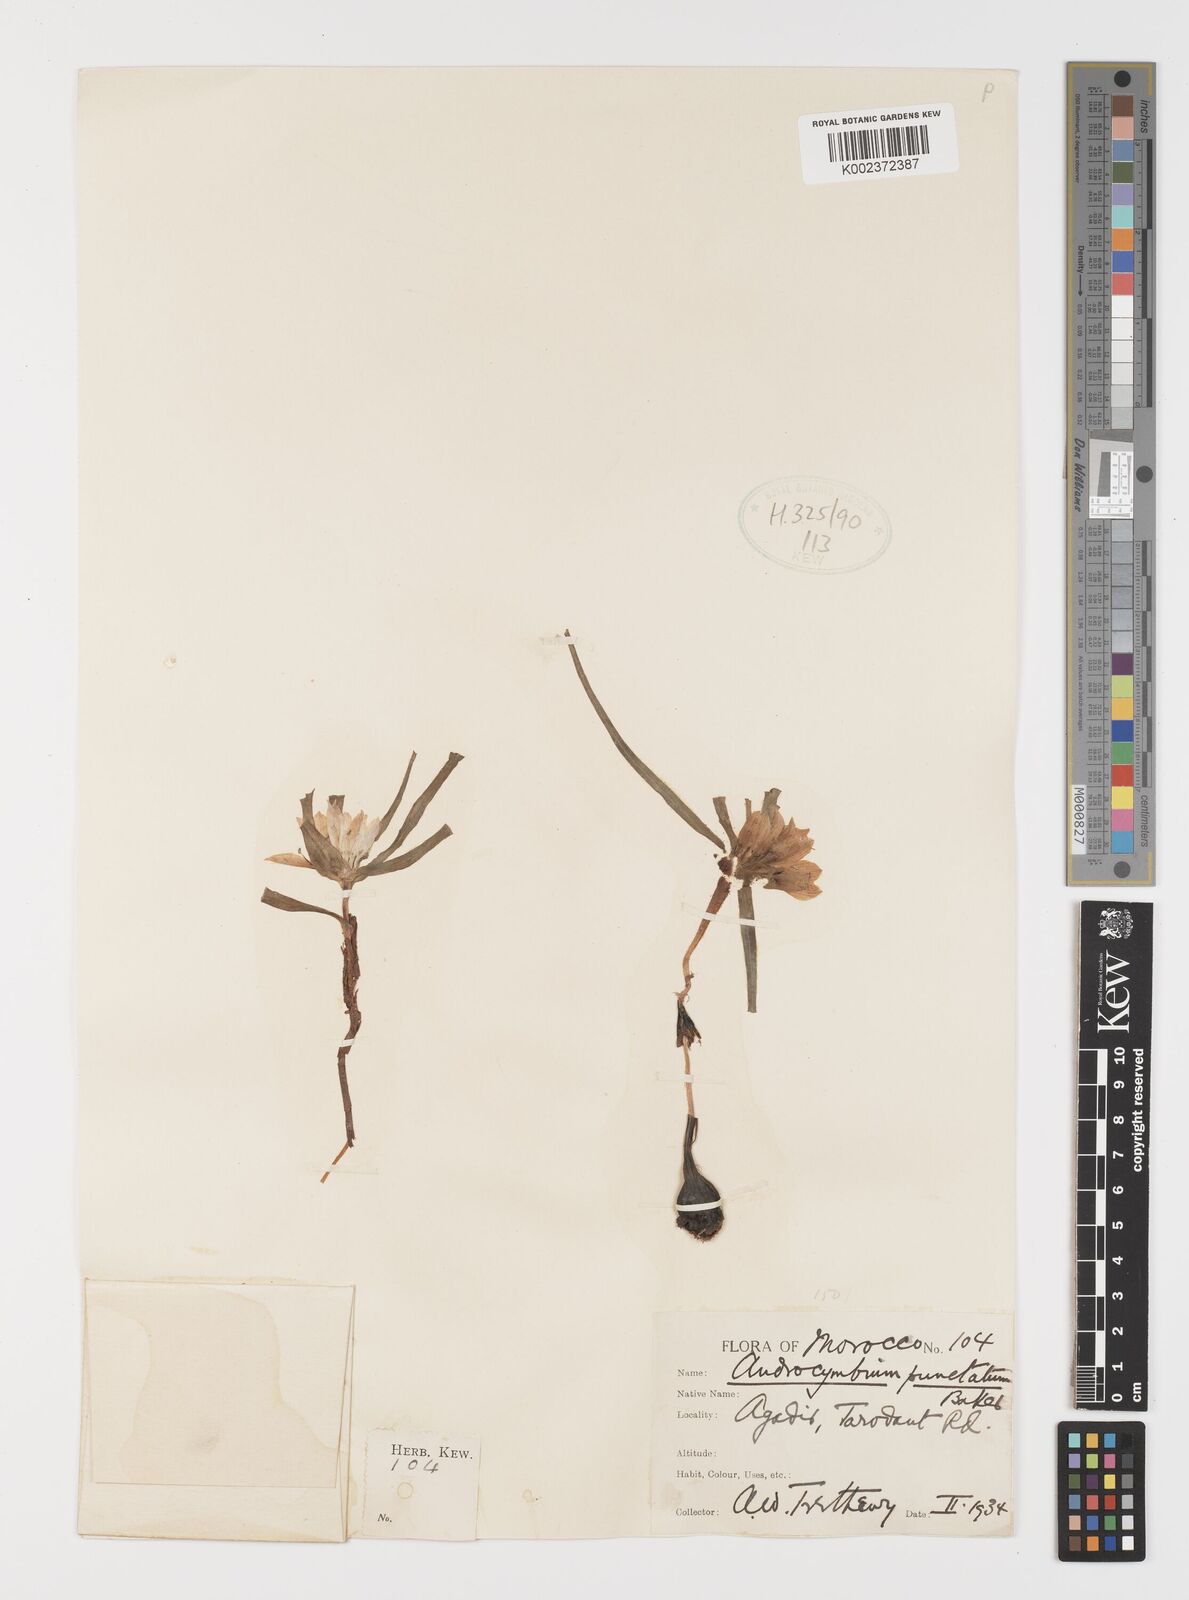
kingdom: Plantae
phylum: Tracheophyta
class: Liliopsida
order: Liliales
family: Colchicaceae
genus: Colchicum
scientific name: Colchicum gramineum
